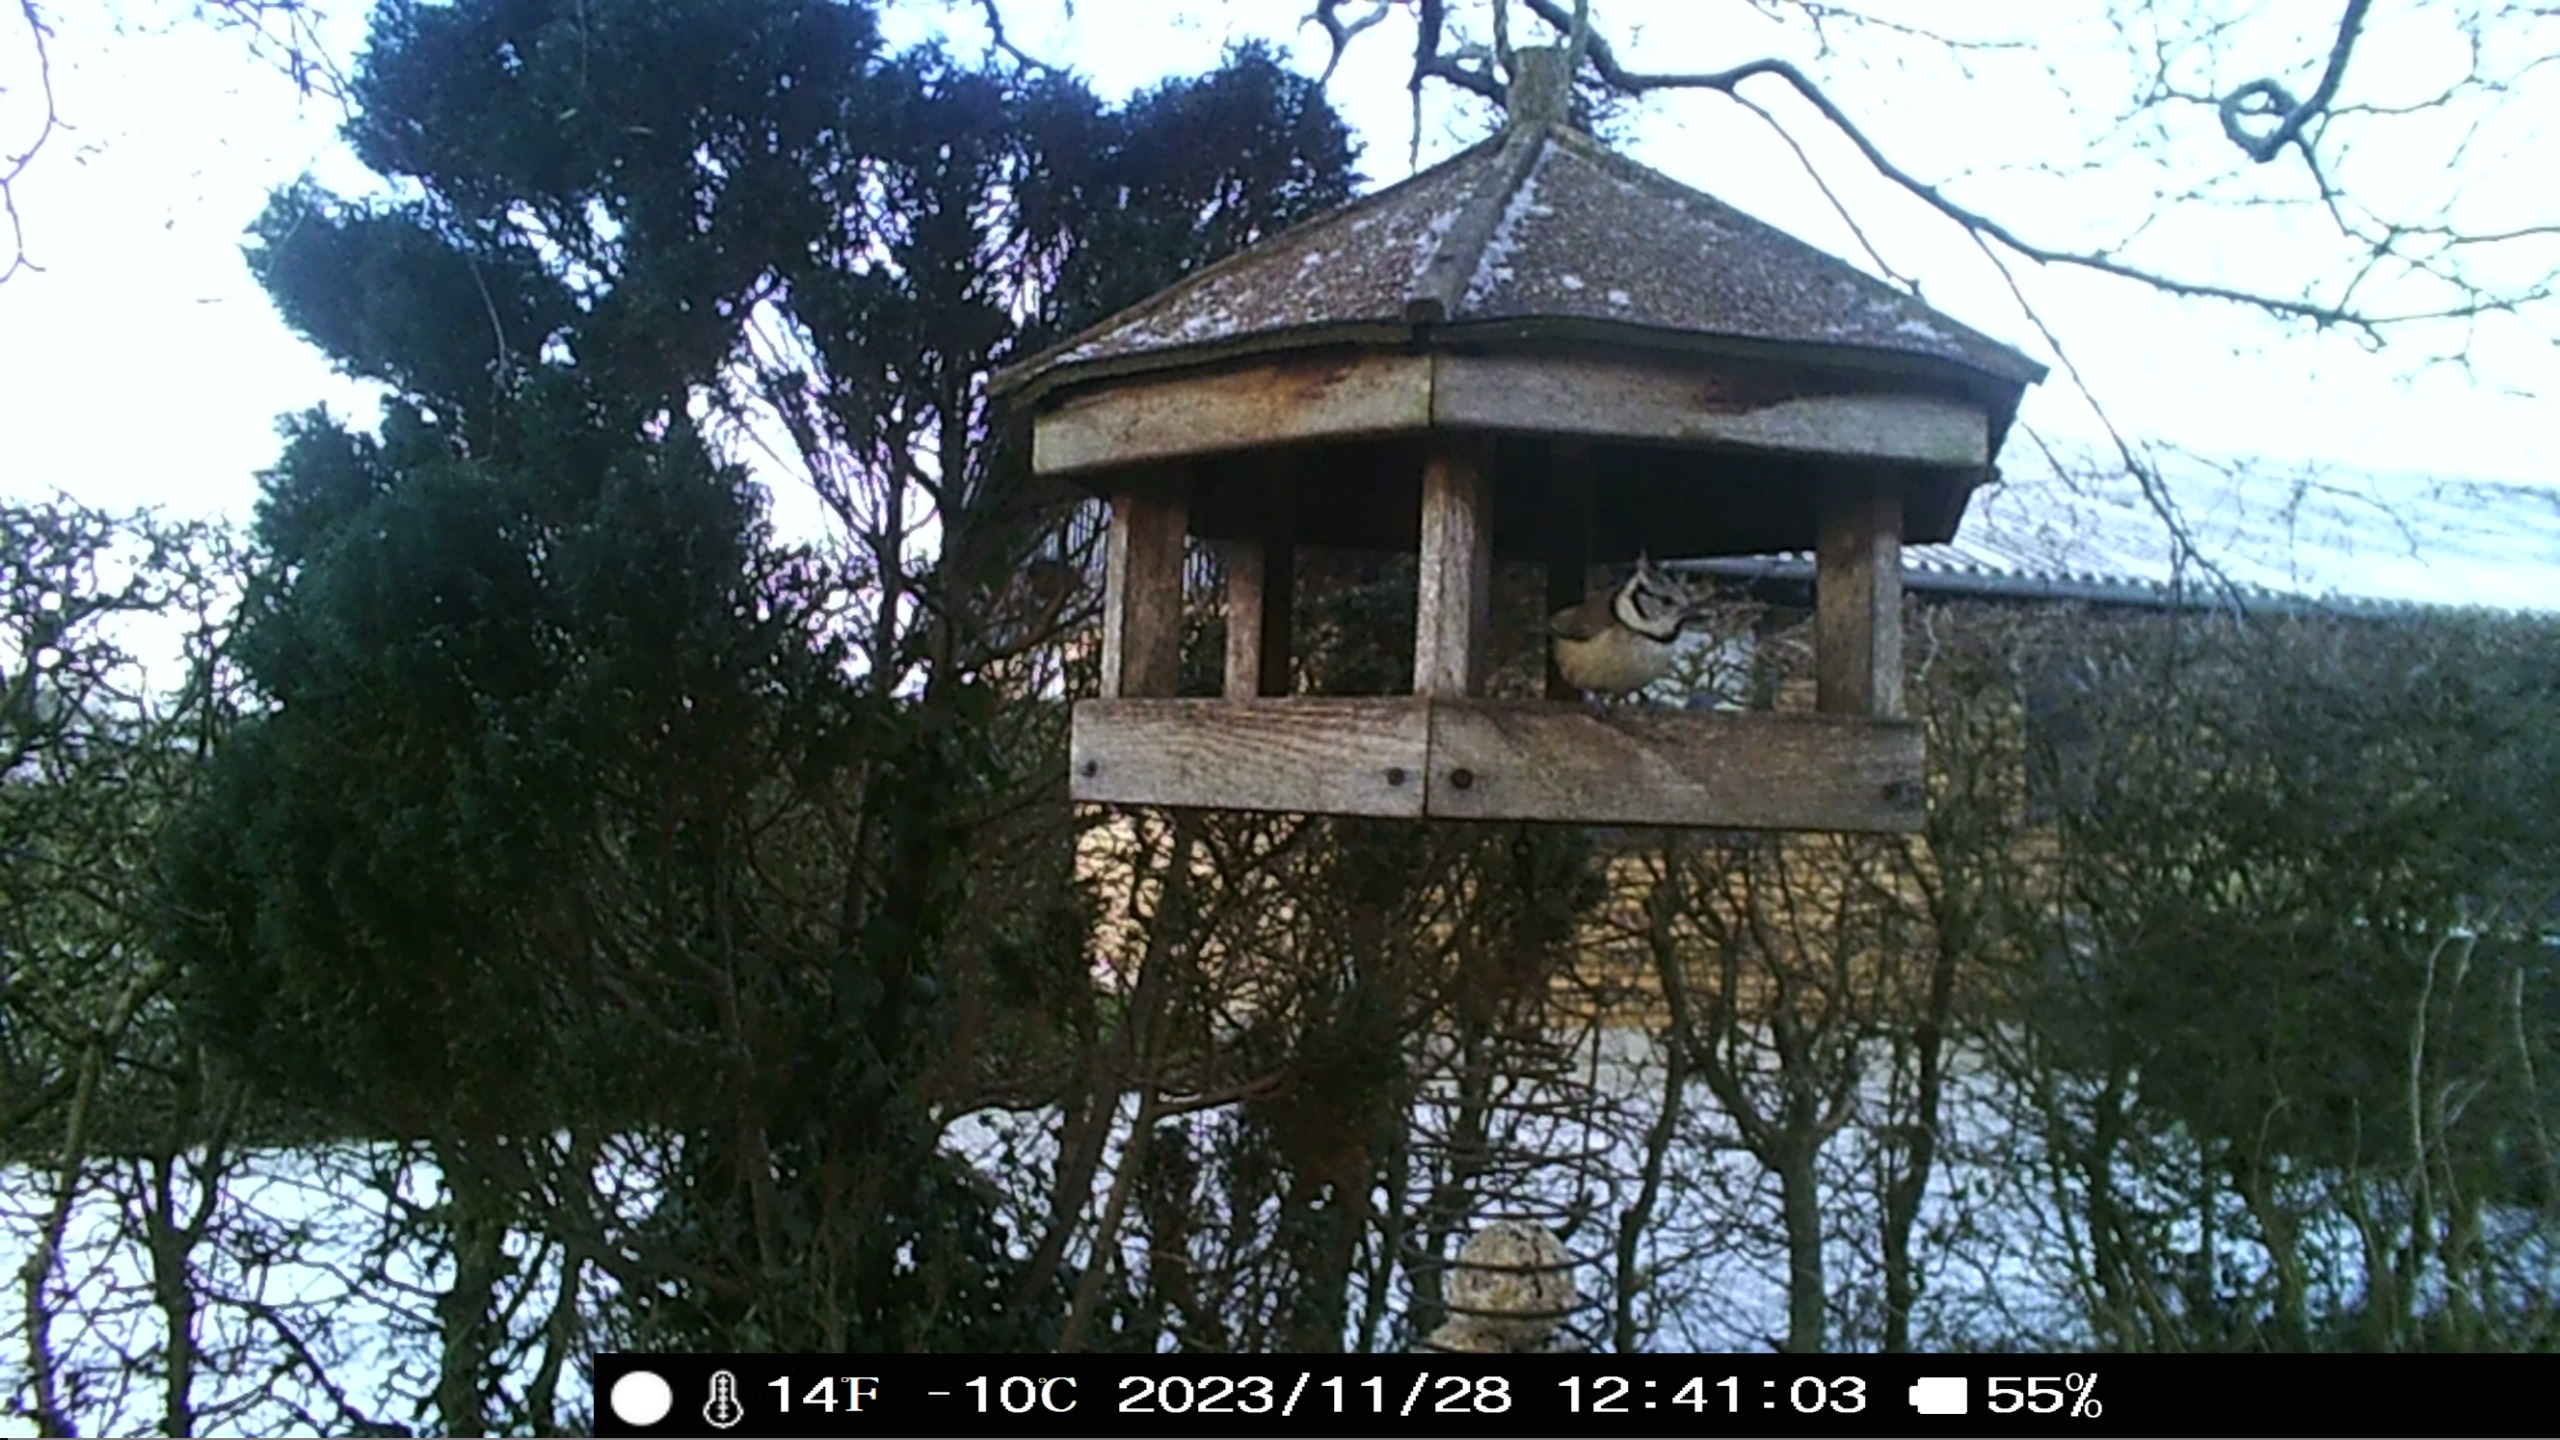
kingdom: Animalia
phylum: Chordata
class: Aves
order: Passeriformes
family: Paridae
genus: Lophophanes
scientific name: Lophophanes cristatus
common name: Topmejse
